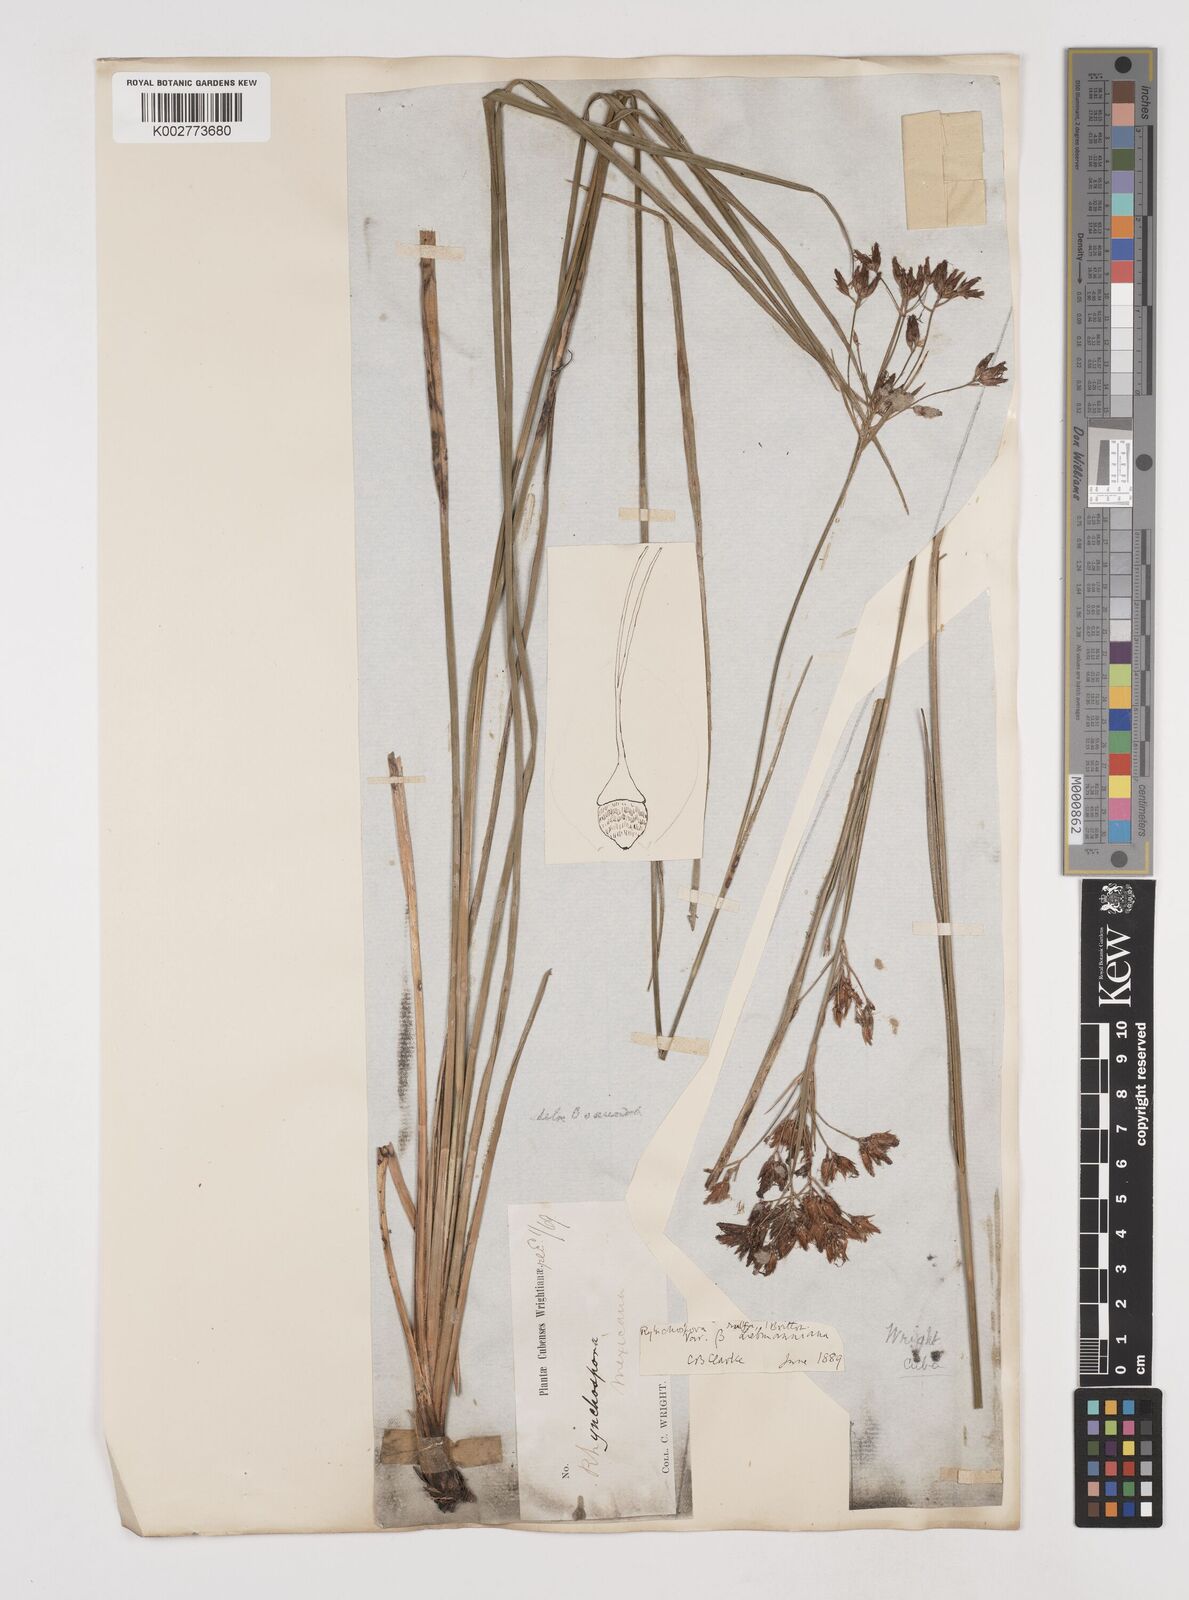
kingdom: Plantae
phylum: Tracheophyta
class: Liliopsida
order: Poales
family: Cyperaceae
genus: Rhynchospora
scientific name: Rhynchospora velutina
